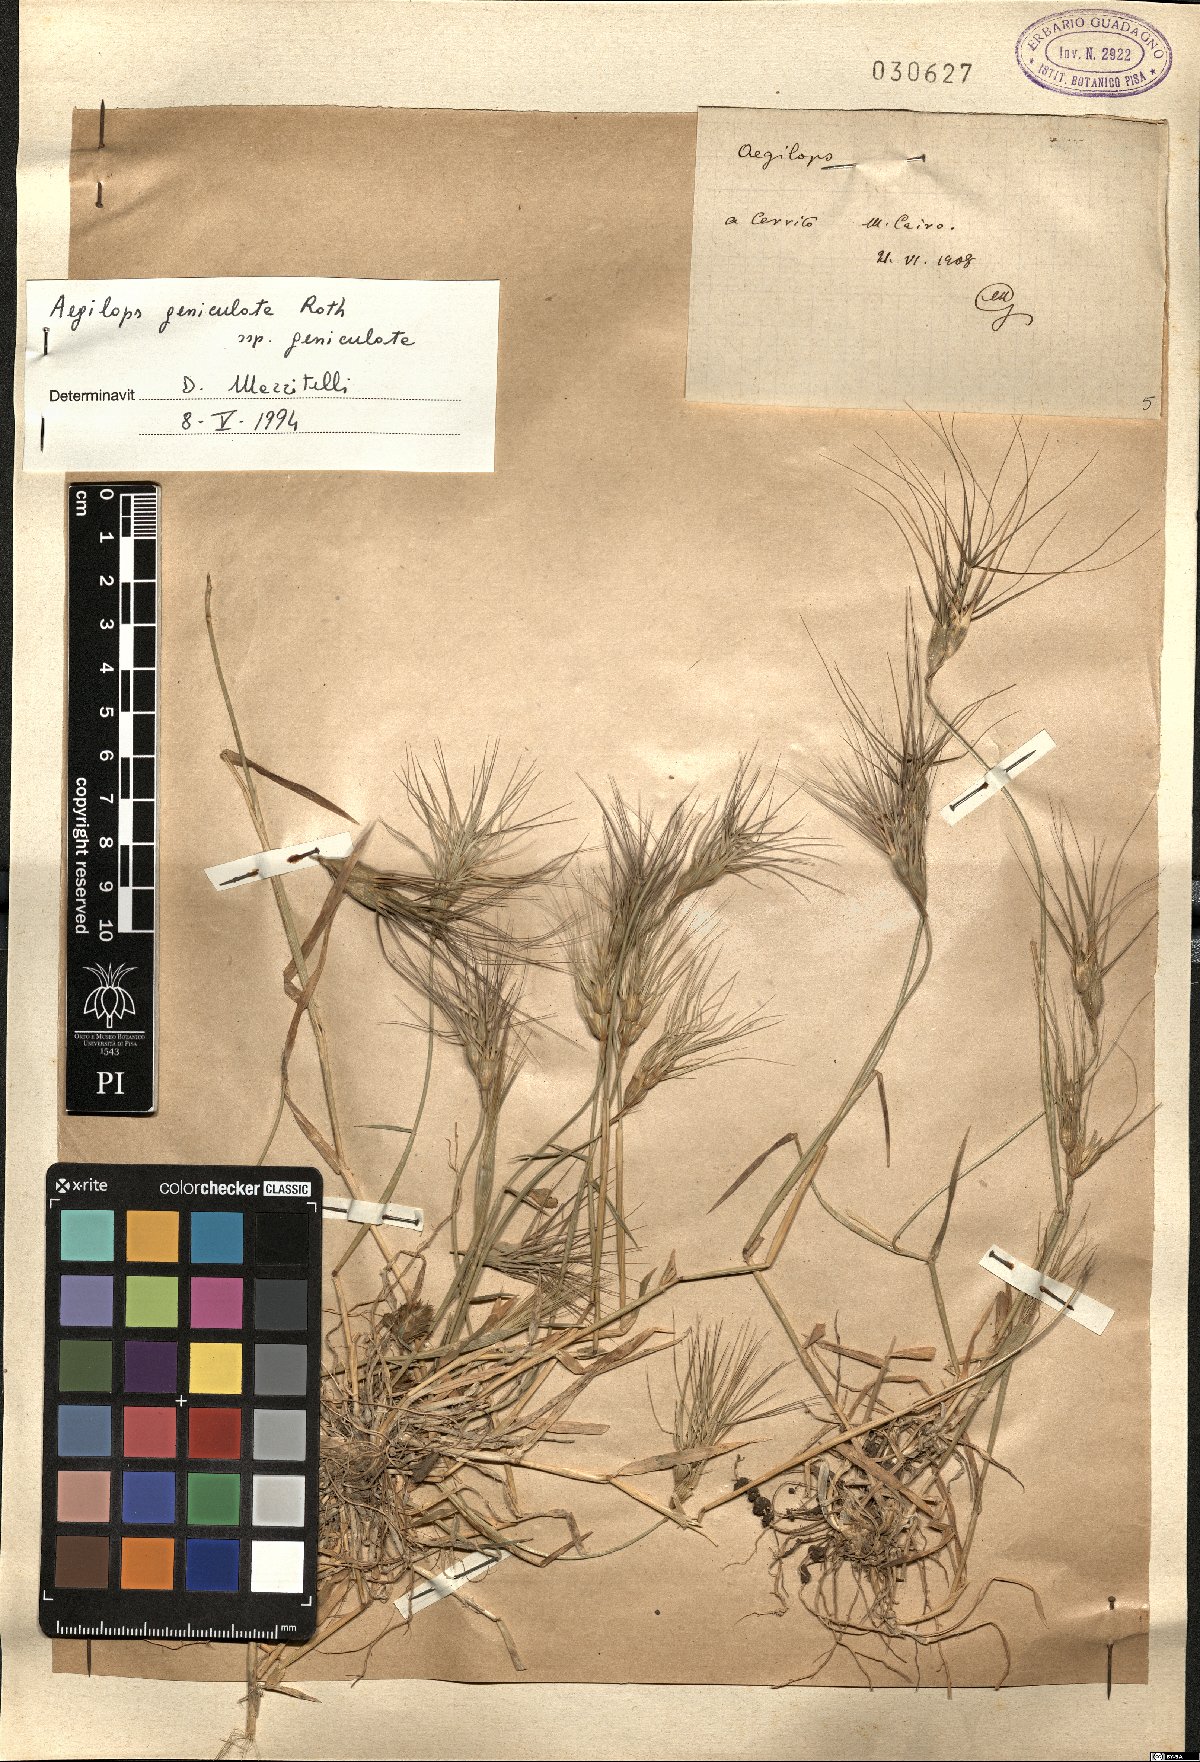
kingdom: Plantae
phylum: Tracheophyta
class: Liliopsida
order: Poales
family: Poaceae
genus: Aegilops
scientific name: Aegilops geniculata
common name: Ovate goat grass
